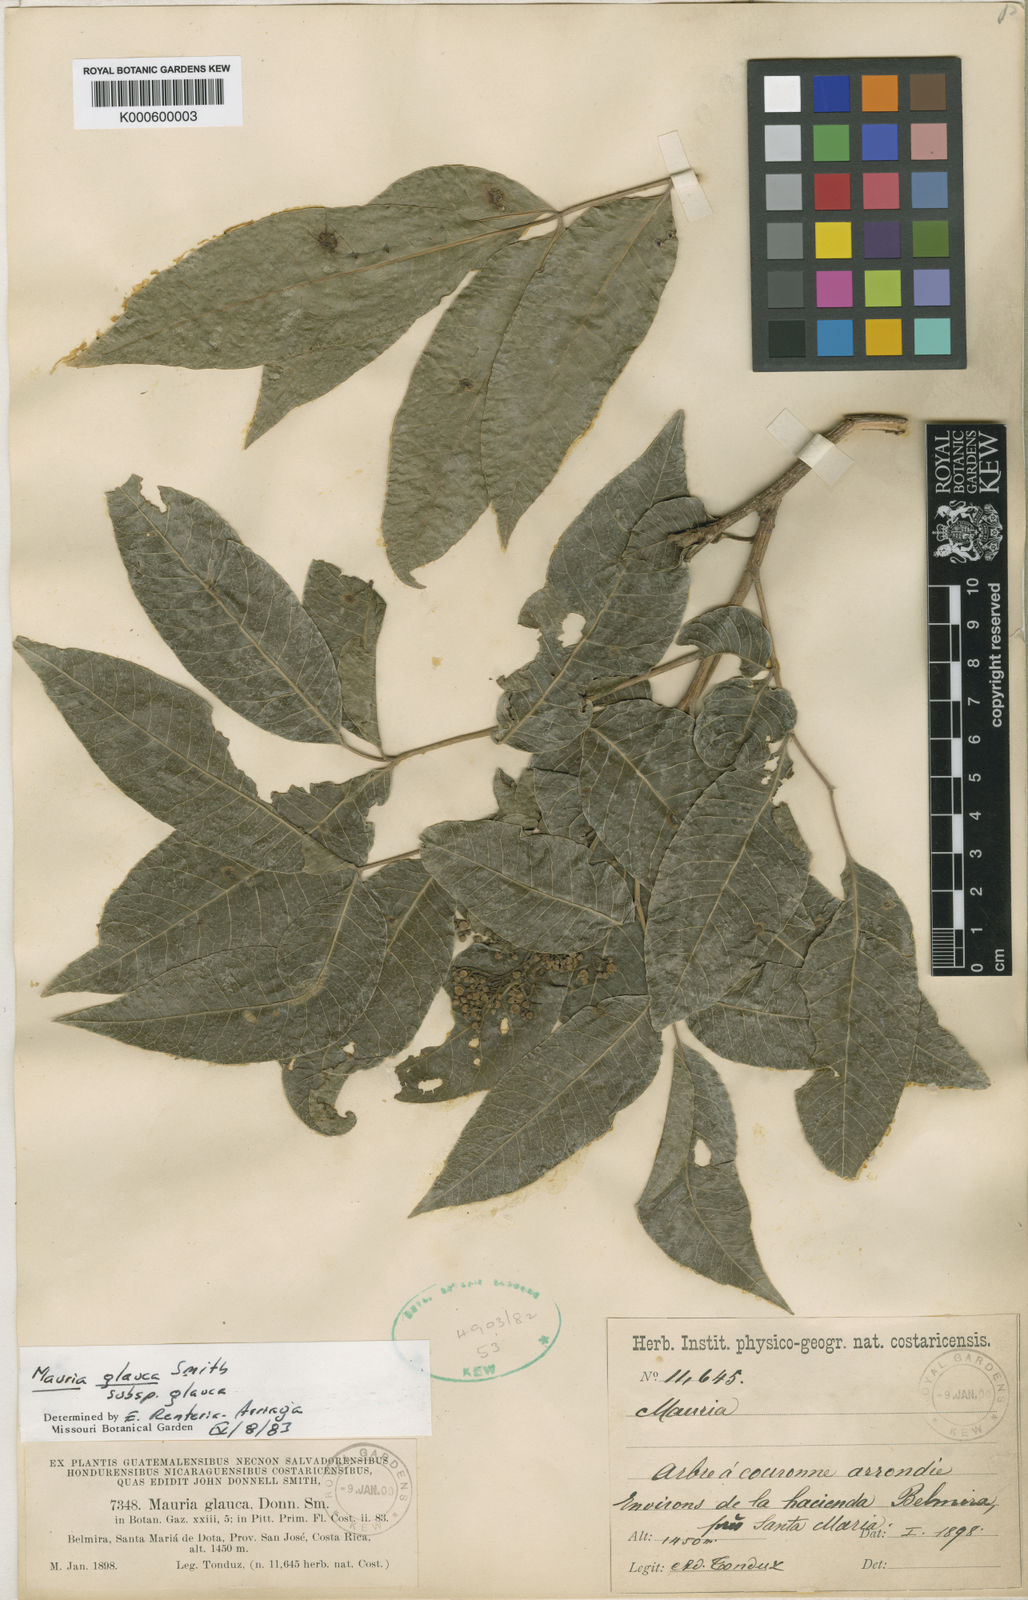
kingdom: Plantae
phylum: Tracheophyta
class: Magnoliopsida
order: Sapindales
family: Anacardiaceae
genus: Mauria
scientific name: Mauria heterophylla
